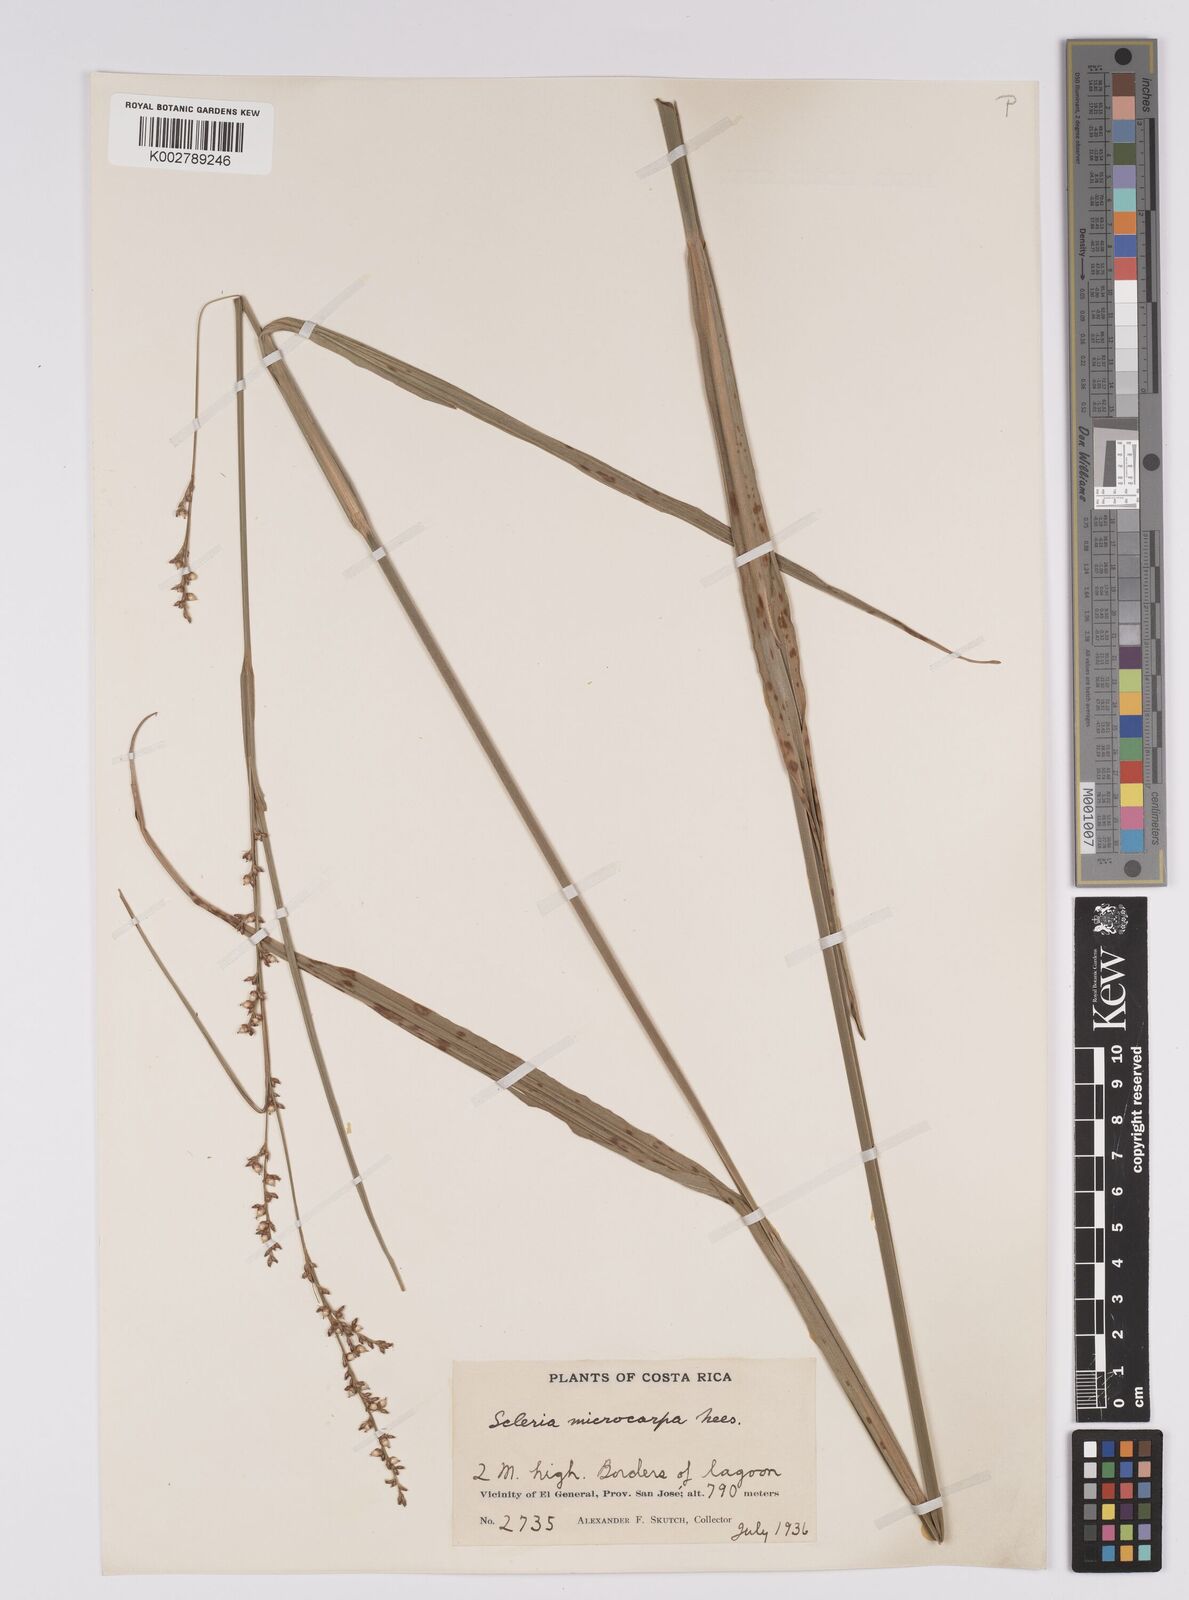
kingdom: Plantae
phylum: Tracheophyta
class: Liliopsida
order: Poales
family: Cyperaceae
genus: Scleria
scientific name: Scleria microcarpa
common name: Tropical nutrush
